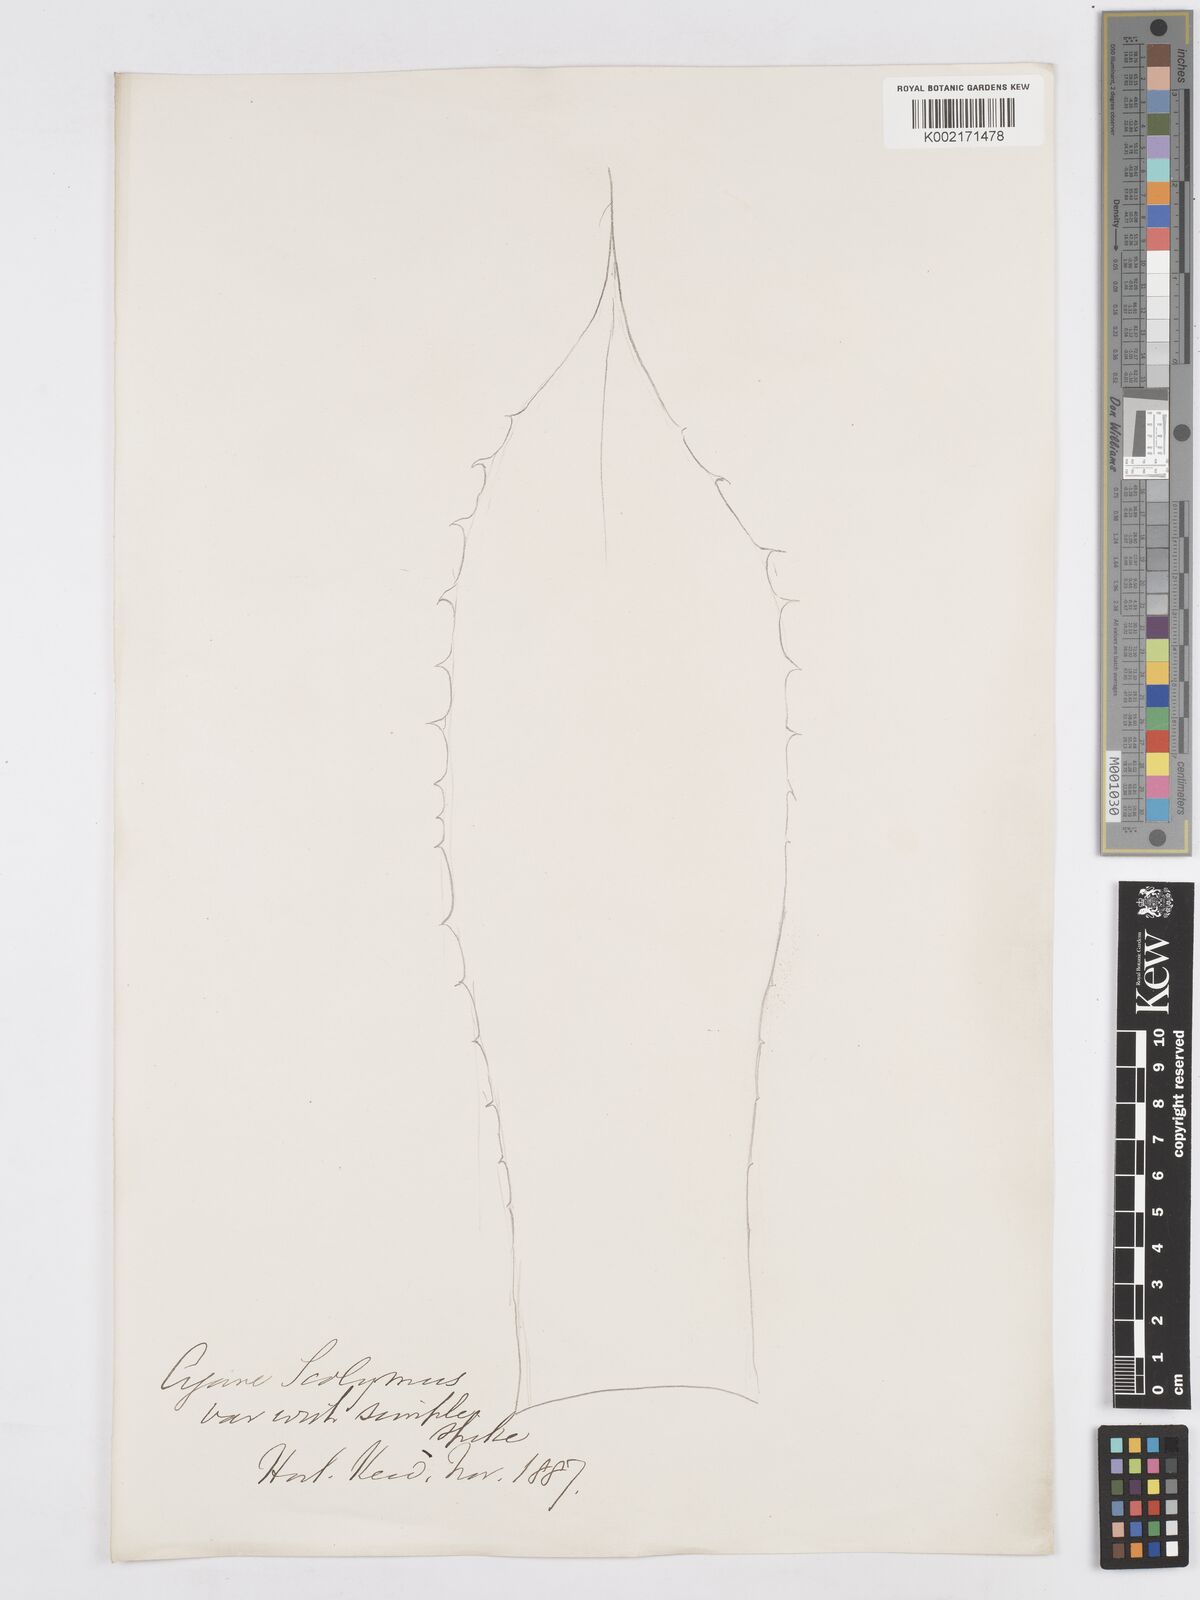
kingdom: Plantae
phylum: Tracheophyta
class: Liliopsida
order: Asparagales
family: Asparagaceae
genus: Agave
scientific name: Agave potatorum
